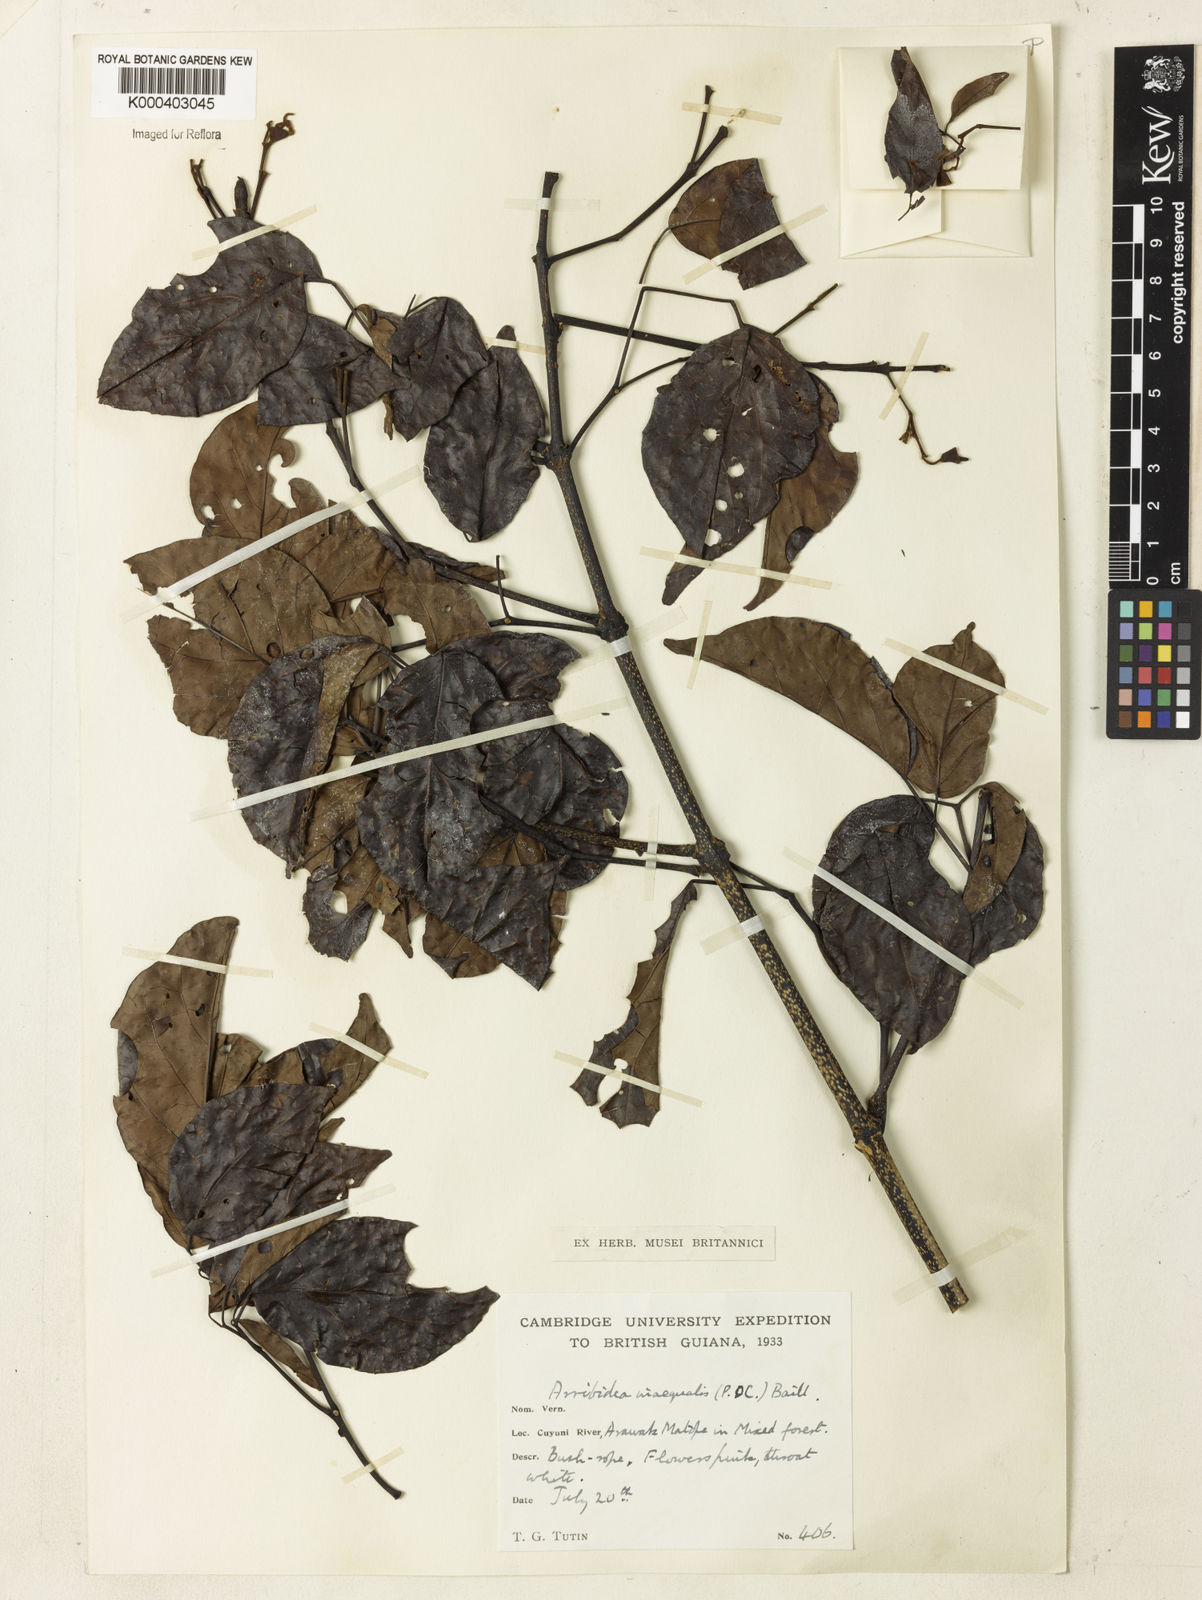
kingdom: Plantae
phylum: Tracheophyta
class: Magnoliopsida
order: Lamiales
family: Bignoniaceae
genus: Cuspidaria
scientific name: Cuspidaria inaequalis
